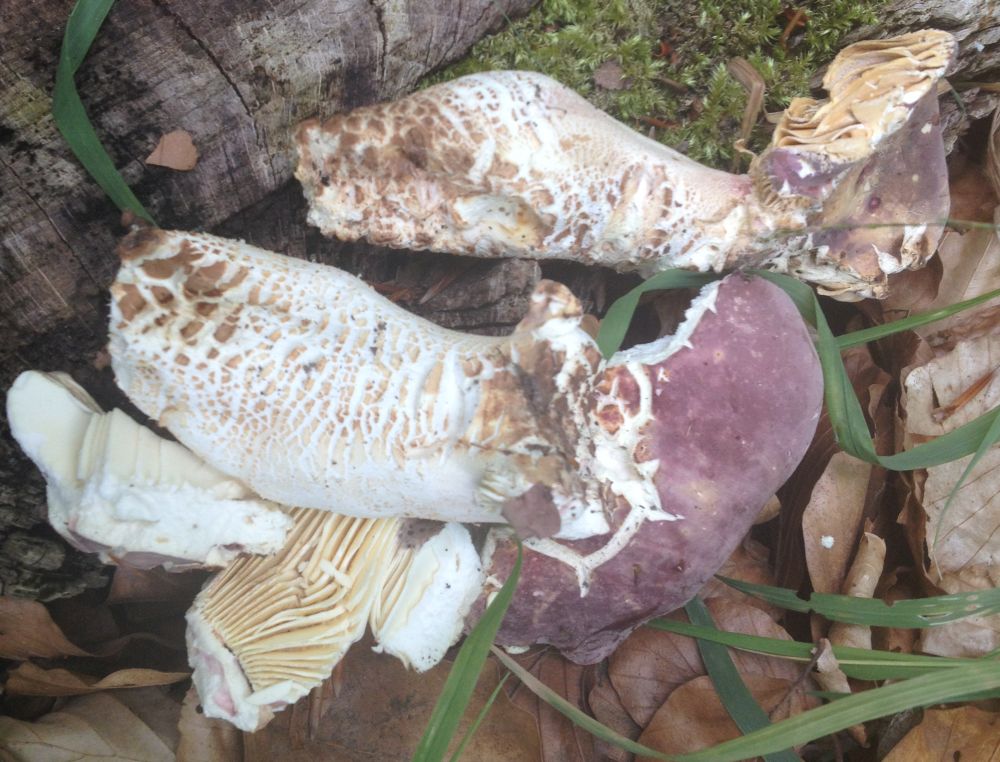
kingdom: Fungi
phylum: Basidiomycota
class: Agaricomycetes
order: Russulales
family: Russulaceae
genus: Russula
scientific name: Russula olivacea
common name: stor skørhat
